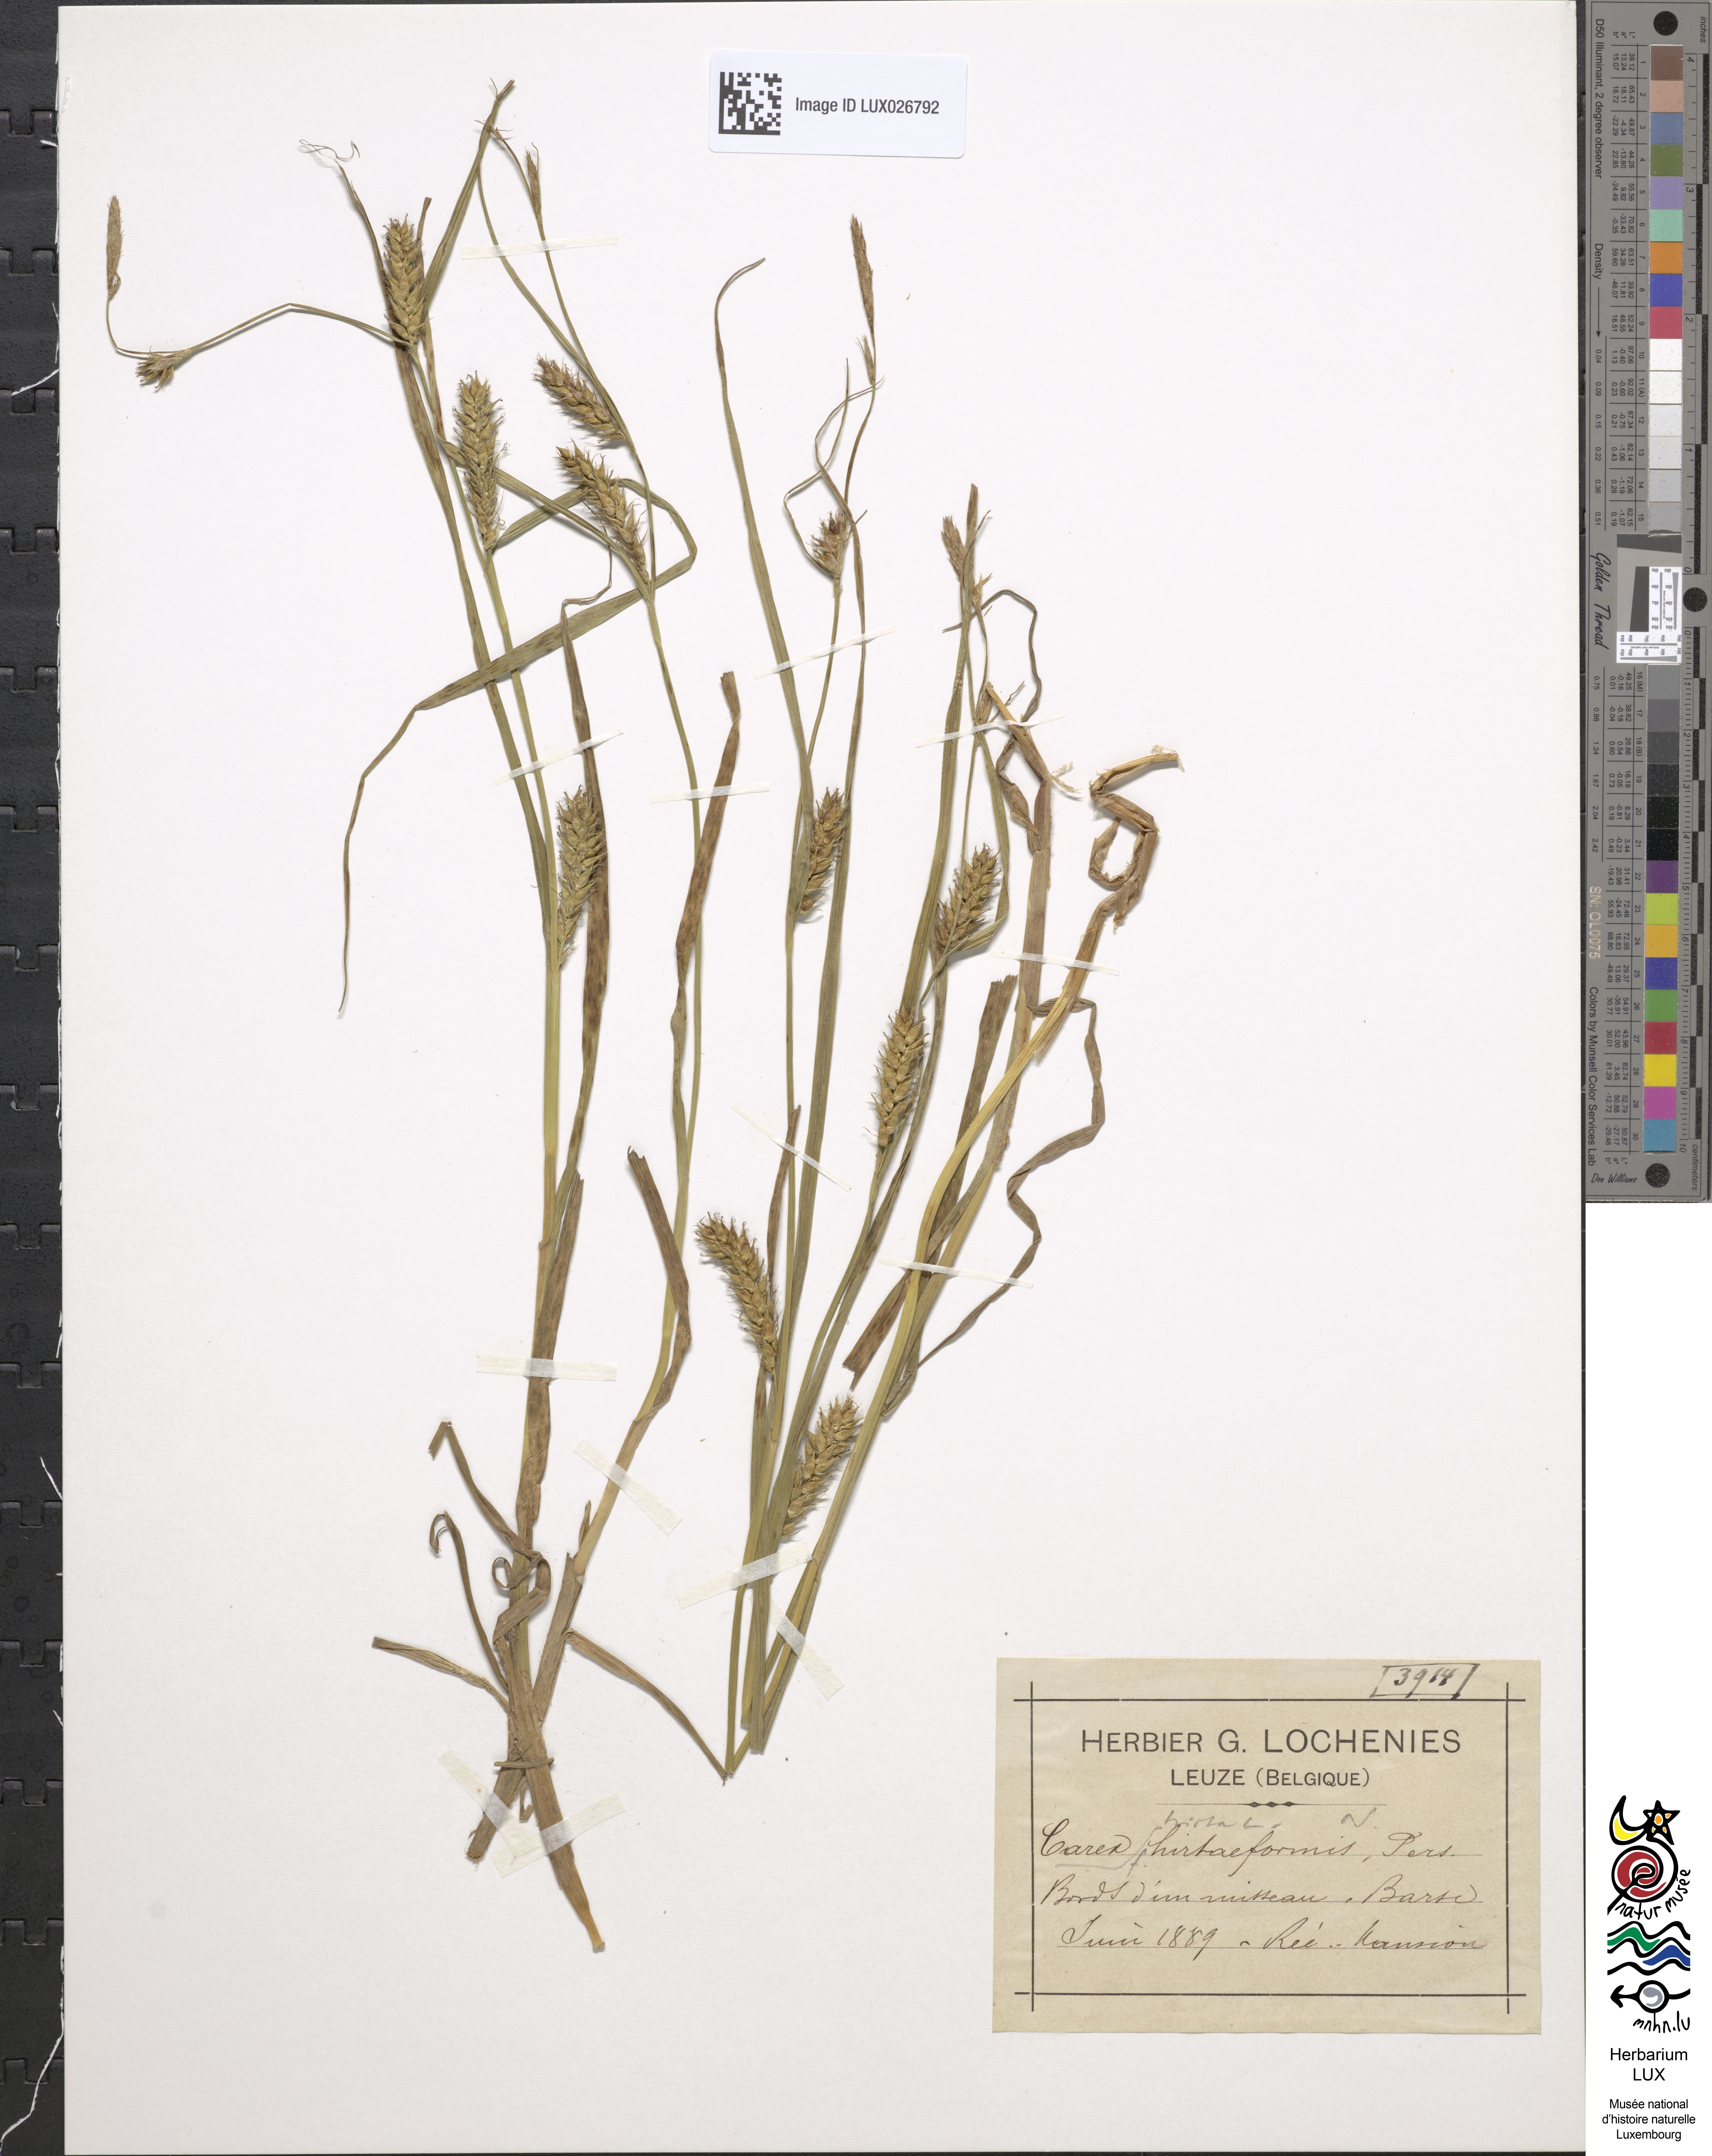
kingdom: Plantae
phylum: Tracheophyta
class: Liliopsida
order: Poales
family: Cyperaceae
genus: Carex
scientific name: Carex hirta
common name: Hairy sedge
